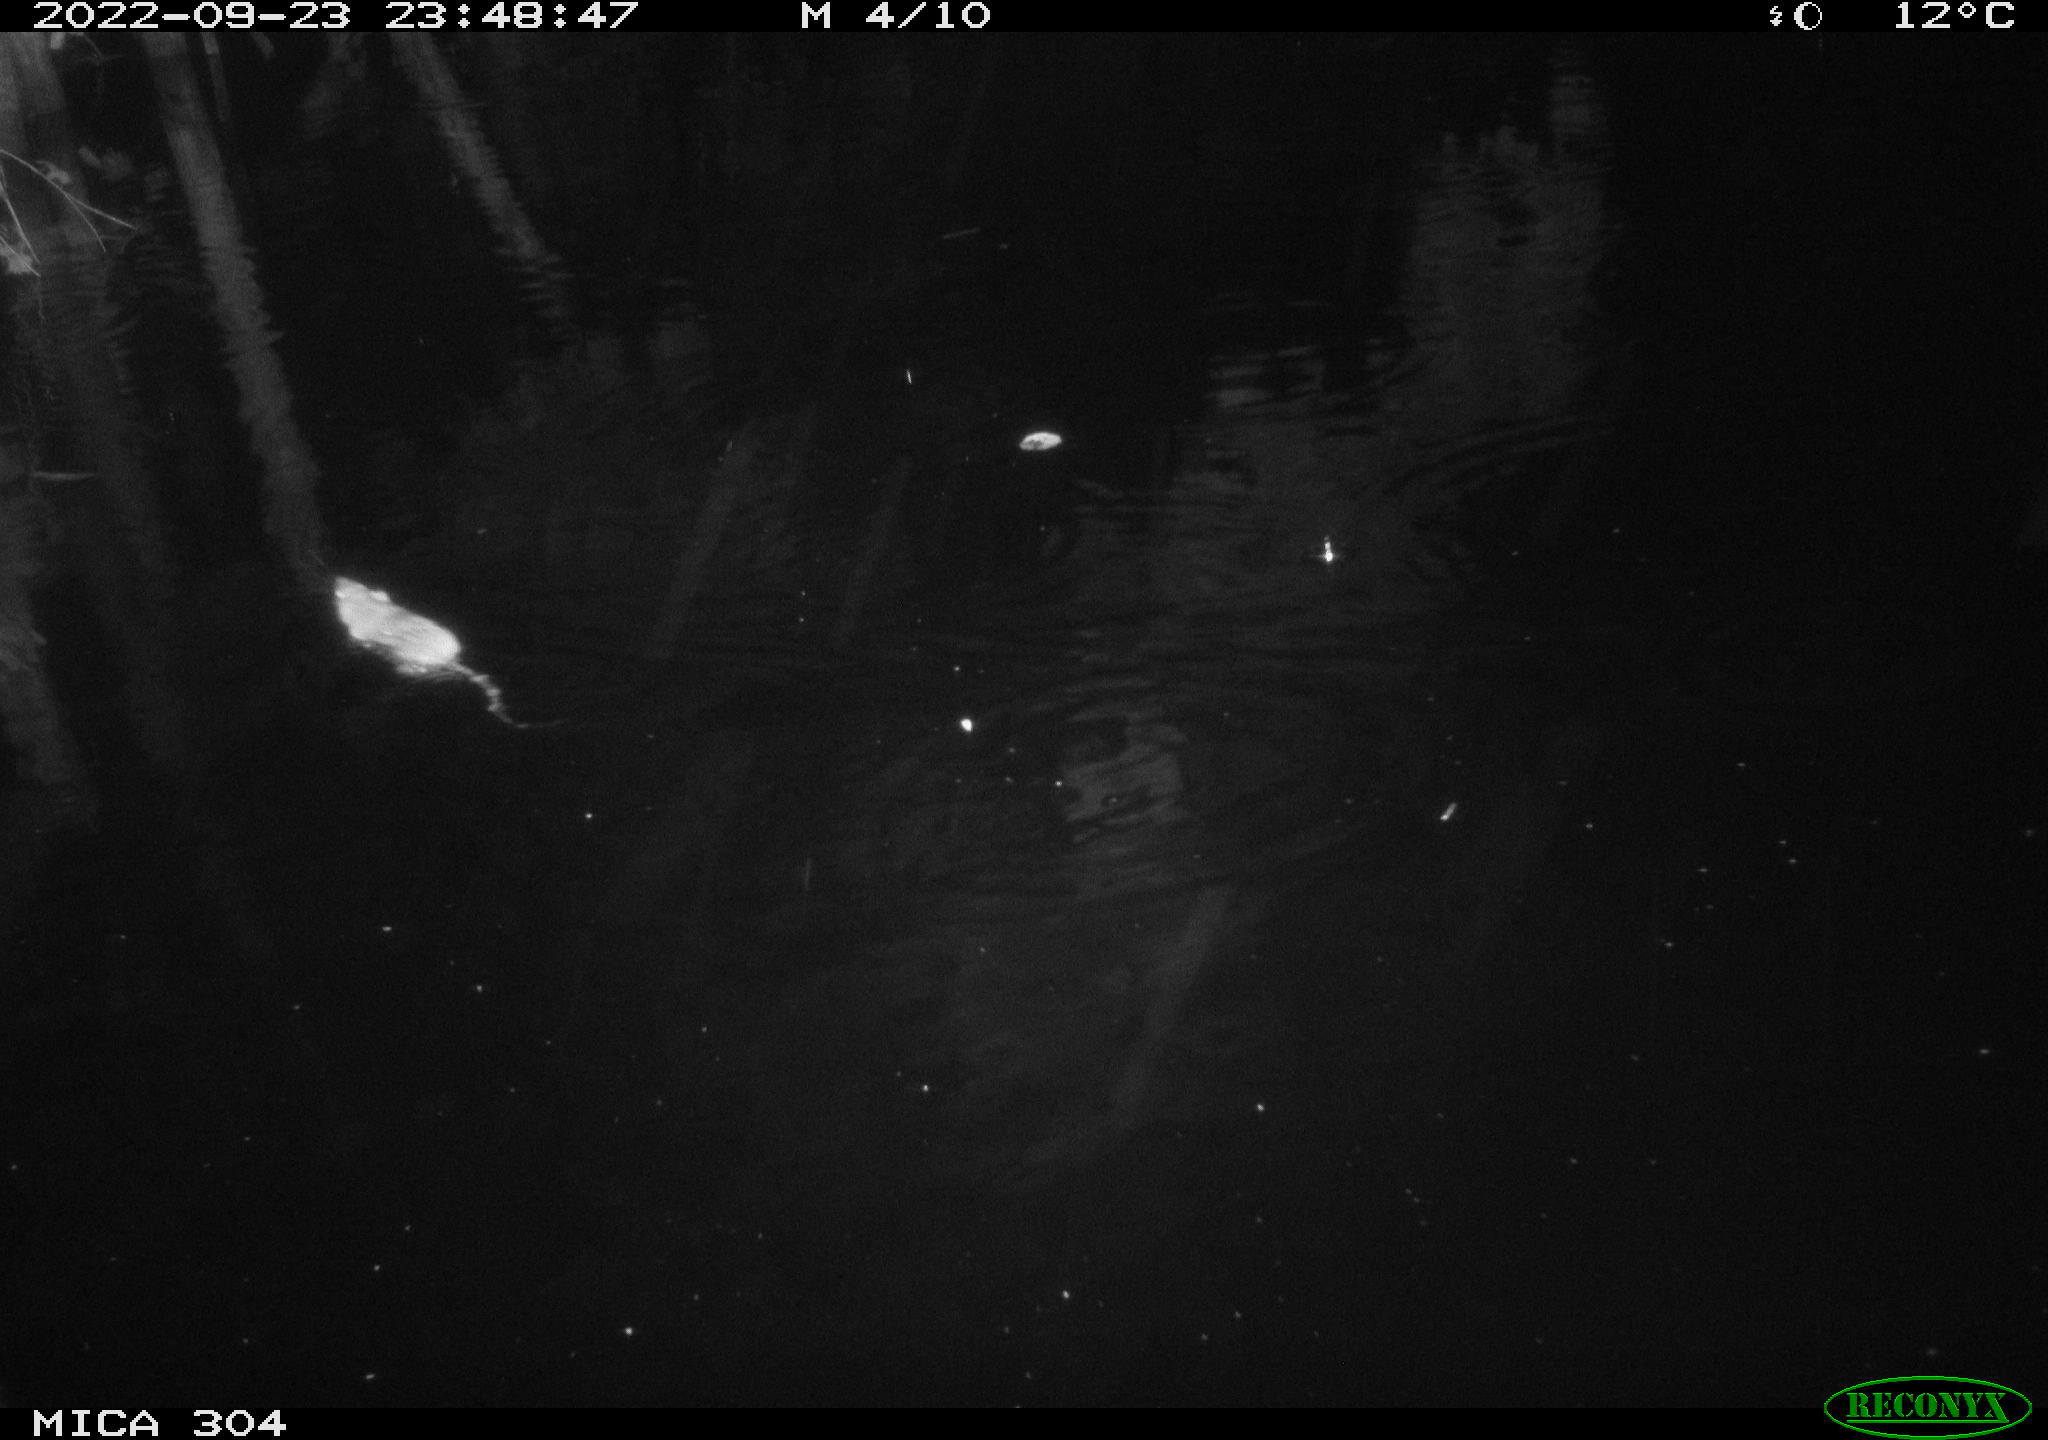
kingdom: Animalia
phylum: Chordata
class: Mammalia
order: Rodentia
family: Muridae
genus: Rattus
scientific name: Rattus norvegicus
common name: Brown rat
